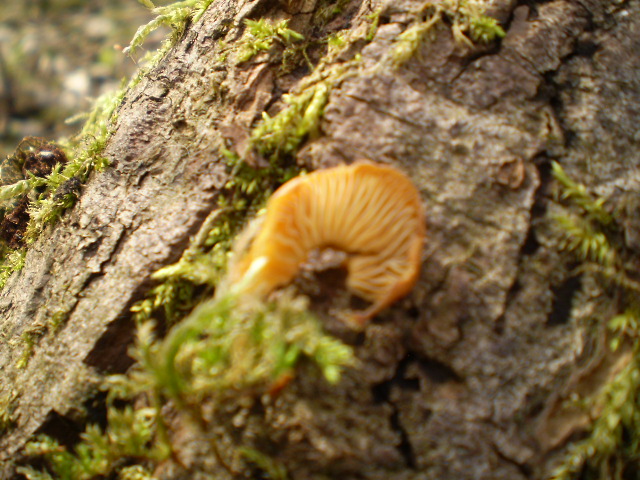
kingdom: Fungi
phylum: Basidiomycota
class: Agaricomycetes
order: Agaricales
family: Physalacriaceae
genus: Flammulina
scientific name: Flammulina velutipes
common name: gul fløjlsfod
